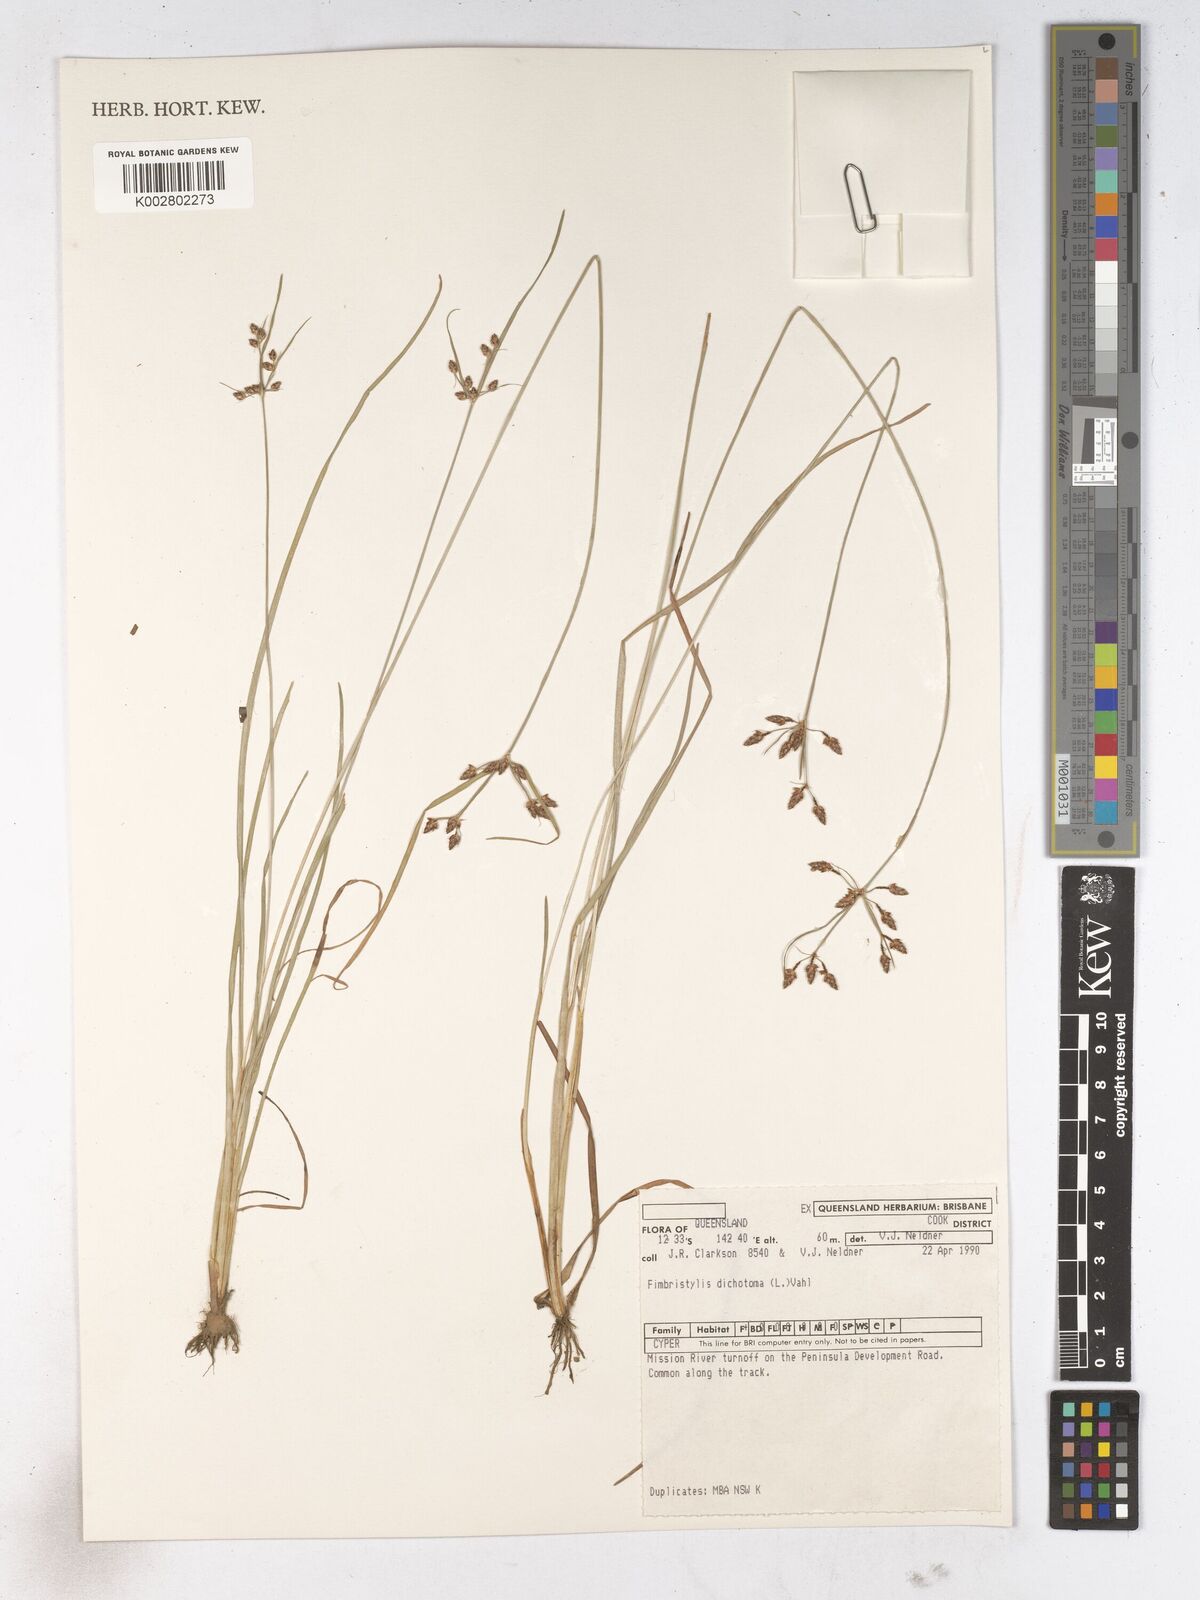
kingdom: Plantae
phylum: Tracheophyta
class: Liliopsida
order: Poales
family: Cyperaceae
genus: Fimbristylis
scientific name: Fimbristylis dichotoma
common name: Forked fimbry
